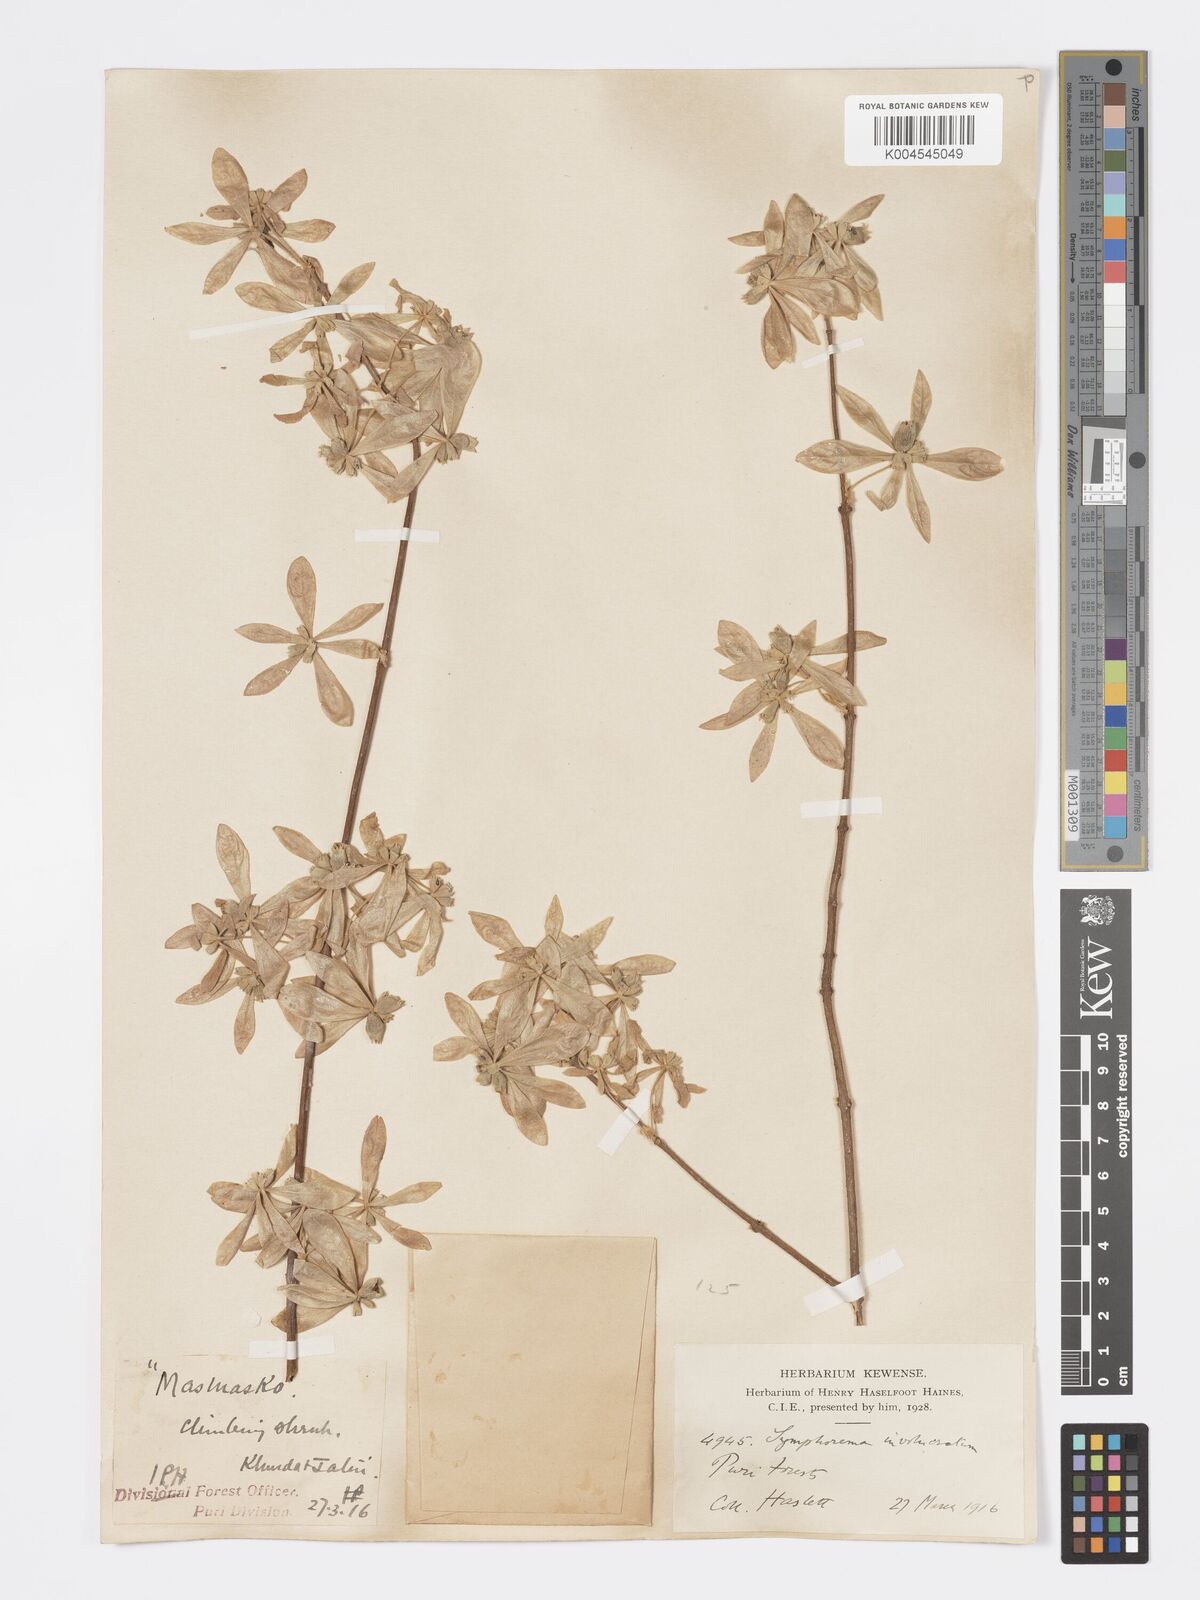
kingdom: Plantae
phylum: Tracheophyta
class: Magnoliopsida
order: Lamiales
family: Lamiaceae
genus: Symphorema
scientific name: Symphorema involucratum
